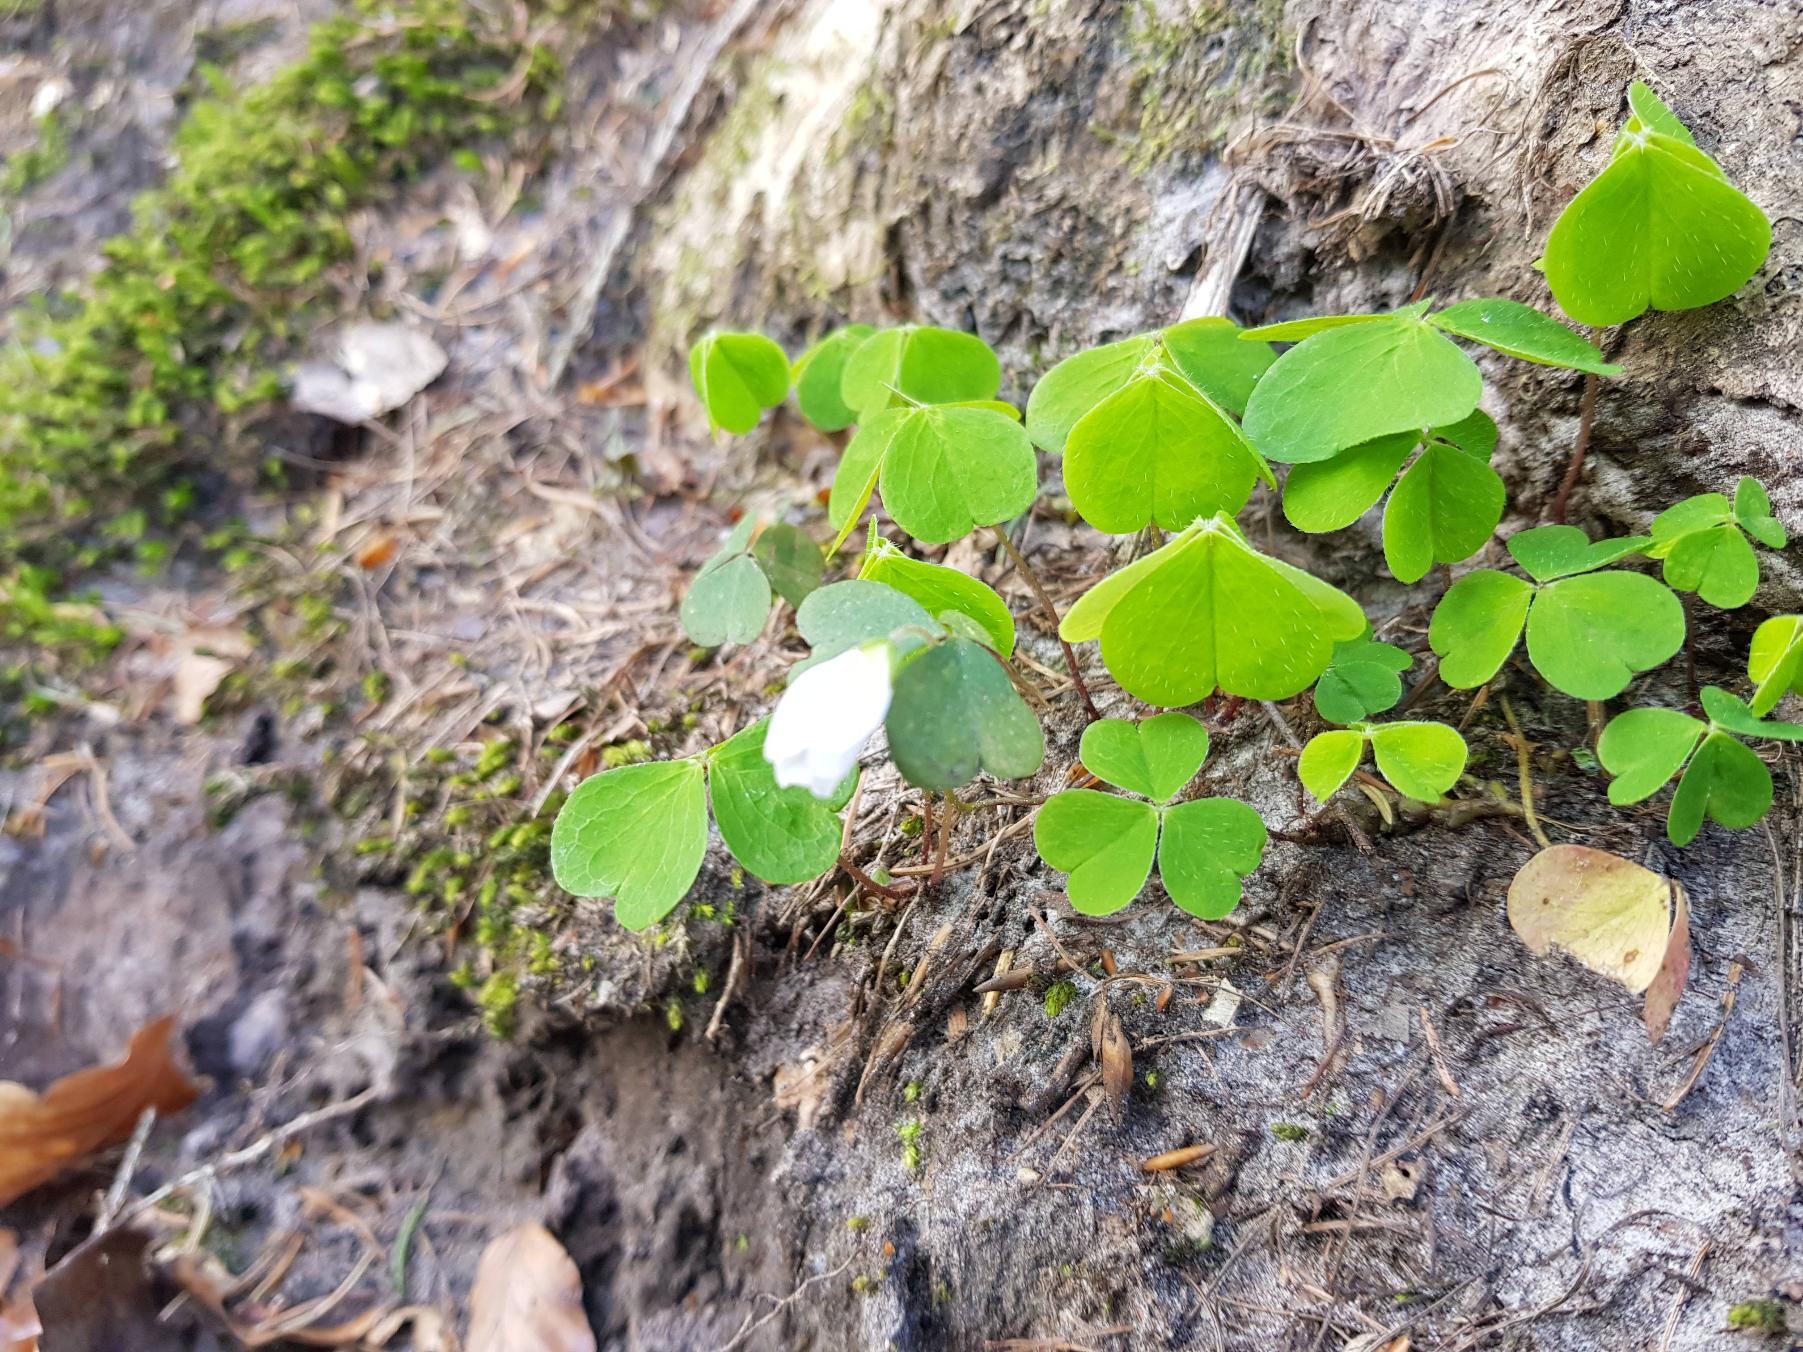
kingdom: Plantae
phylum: Tracheophyta
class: Magnoliopsida
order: Oxalidales
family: Oxalidaceae
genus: Oxalis
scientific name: Oxalis acetosella
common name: Skovsyre
